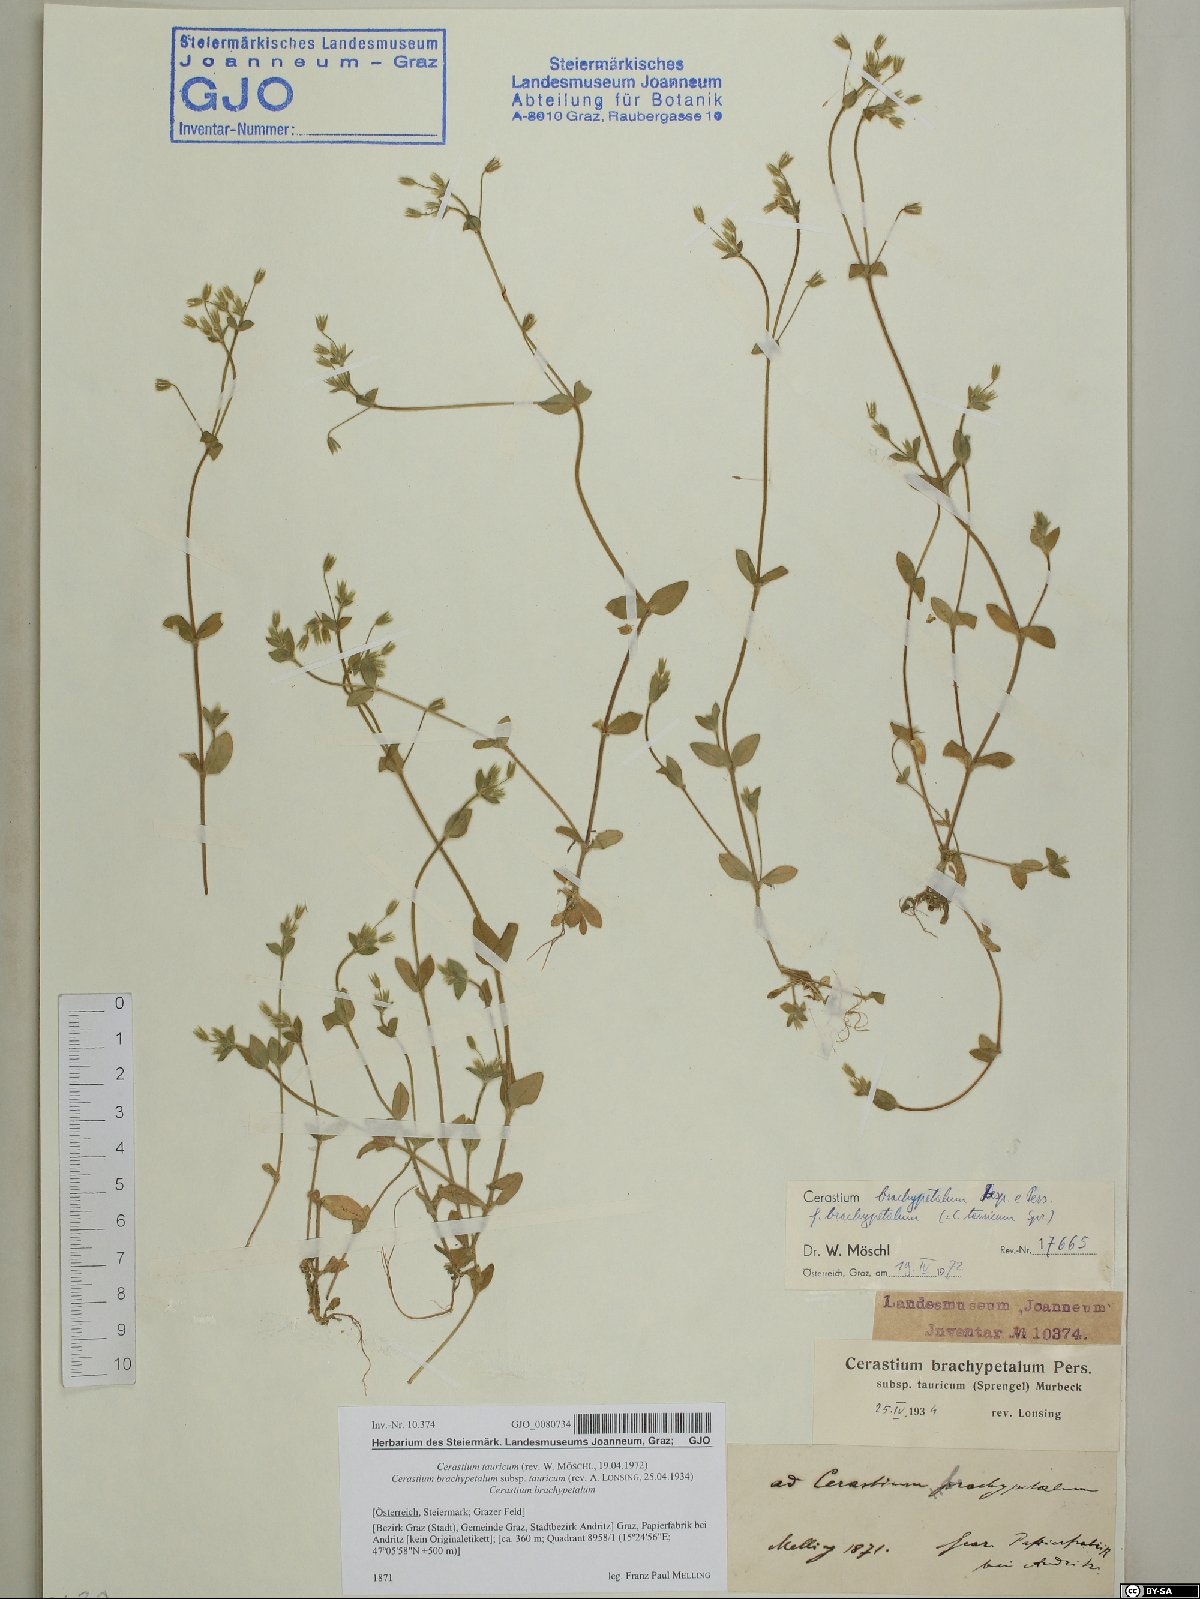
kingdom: Plantae
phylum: Tracheophyta
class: Magnoliopsida
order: Caryophyllales
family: Caryophyllaceae
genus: Cerastium
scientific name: Cerastium brachypetalum
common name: Grey mouse-ear
